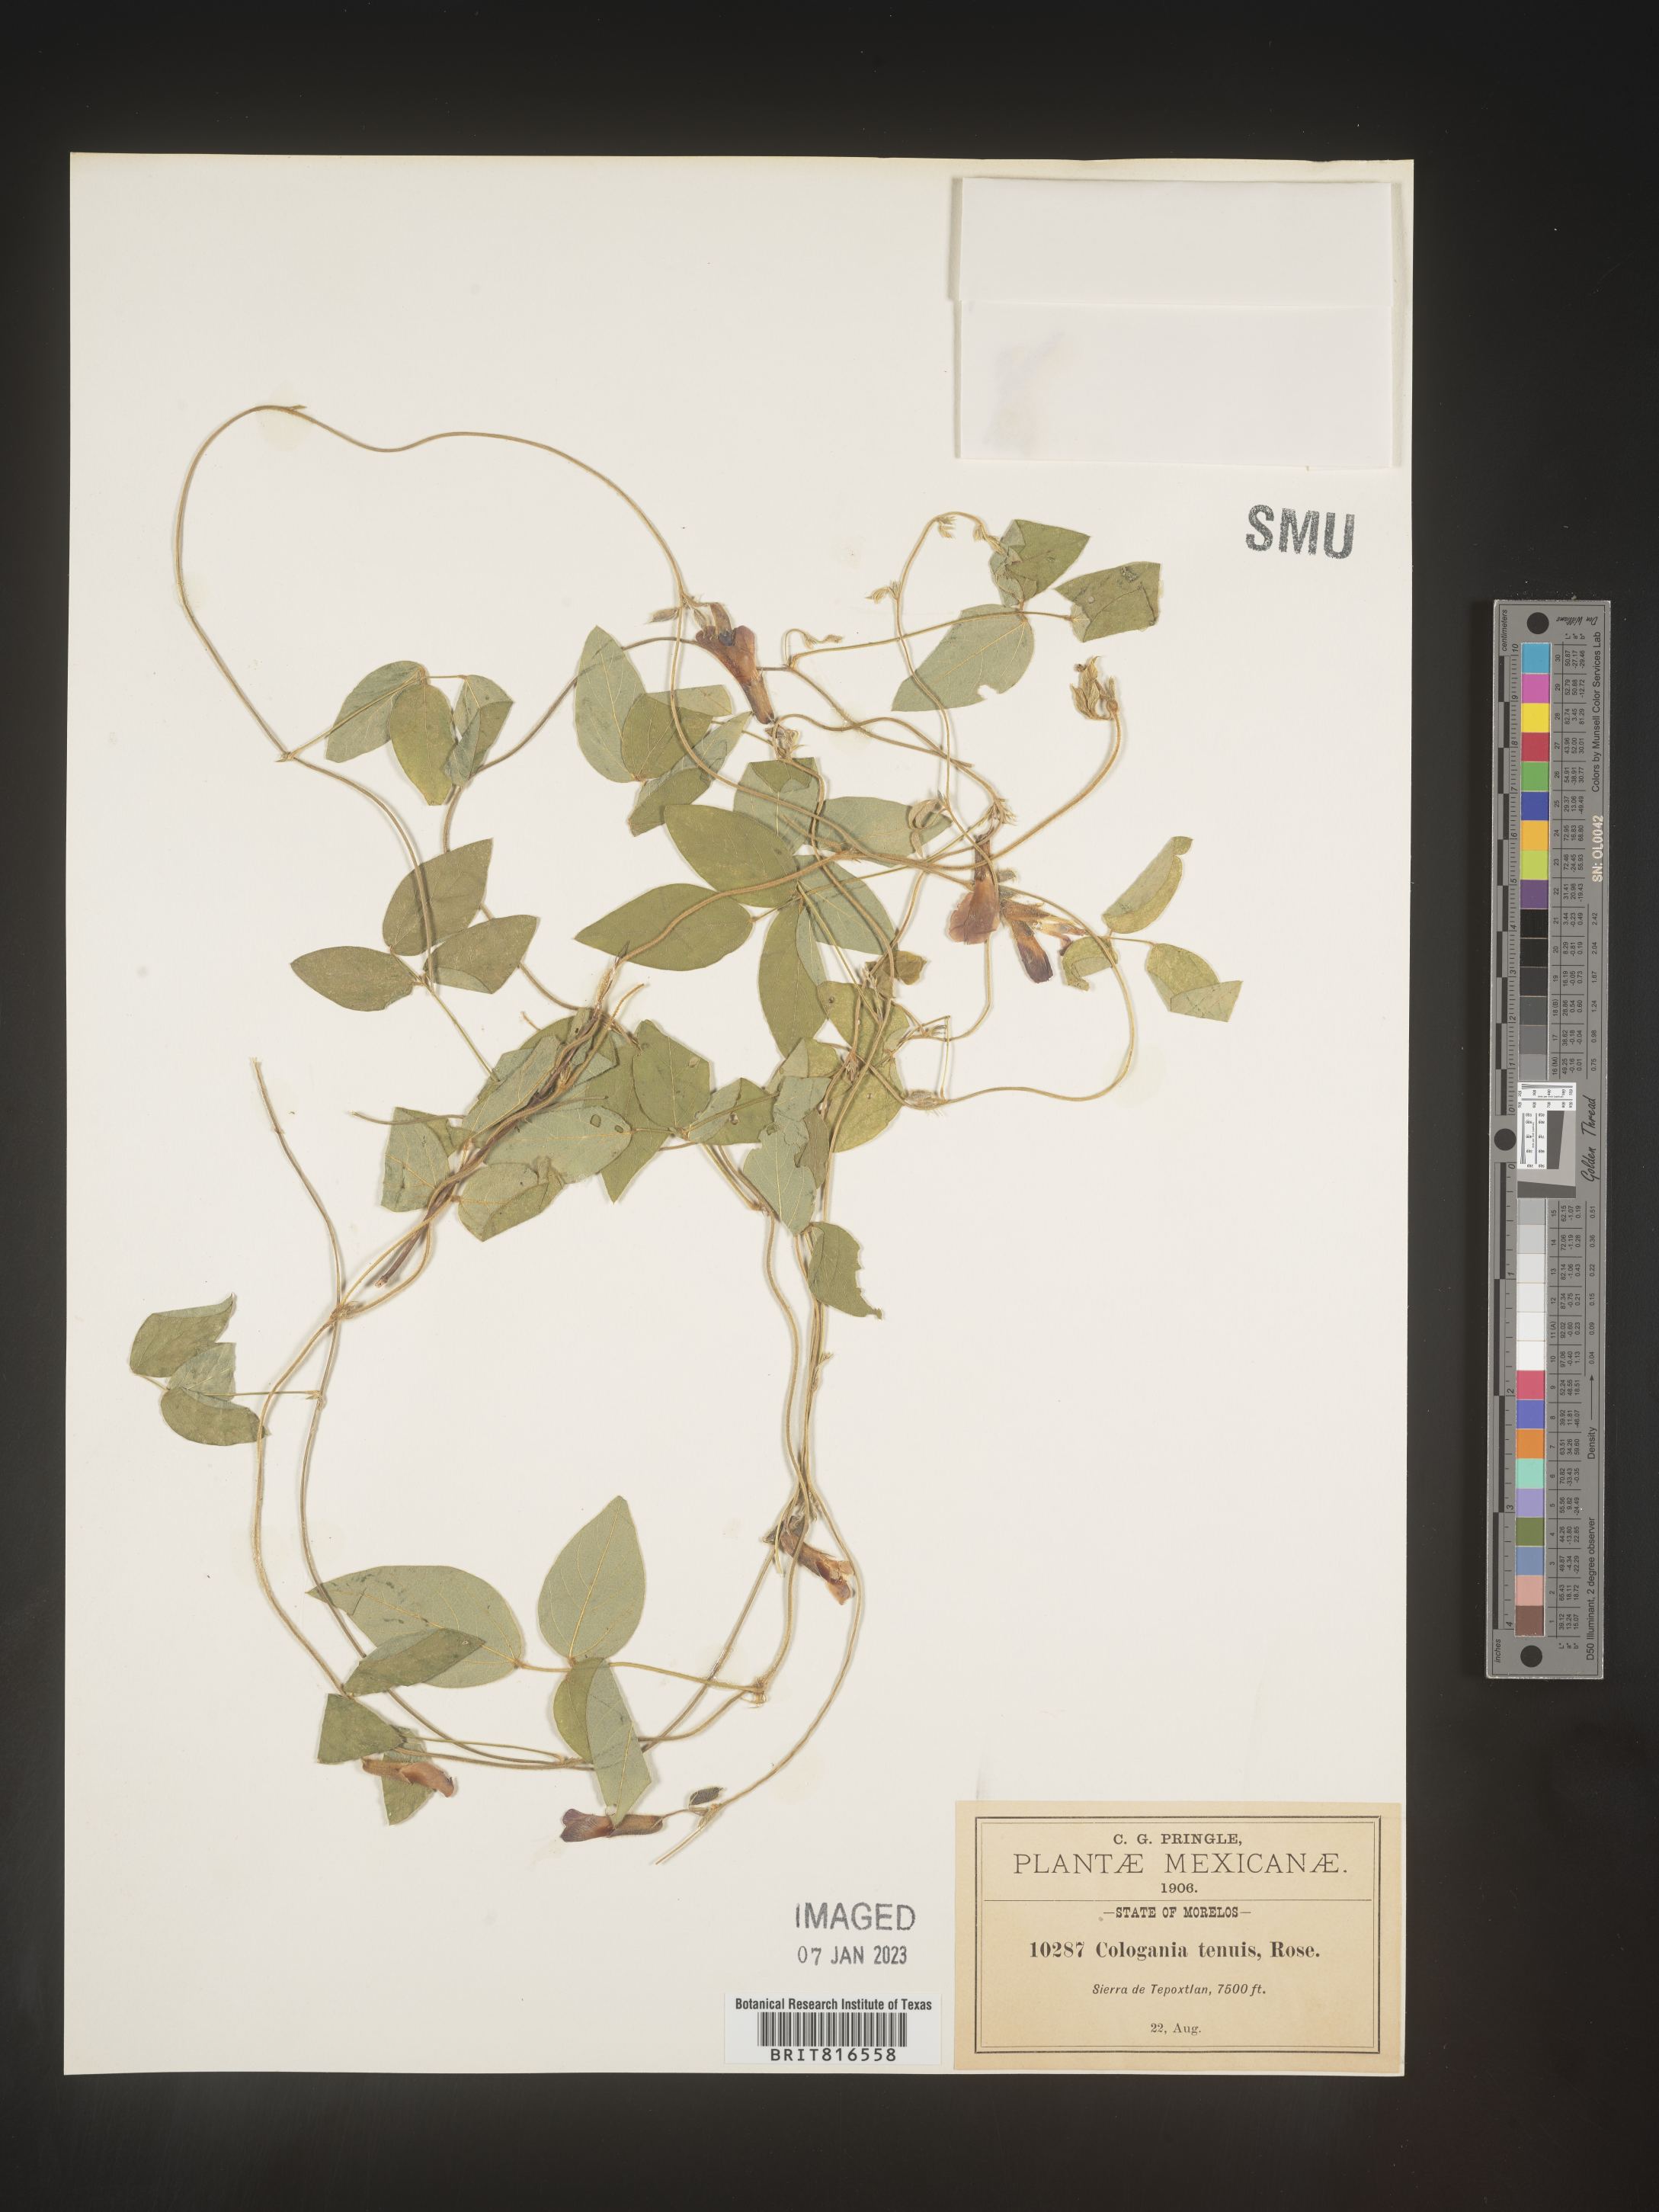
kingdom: Plantae
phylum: Tracheophyta
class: Magnoliopsida
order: Fabales
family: Fabaceae
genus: Cologania
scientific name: Cologania broussonetii
